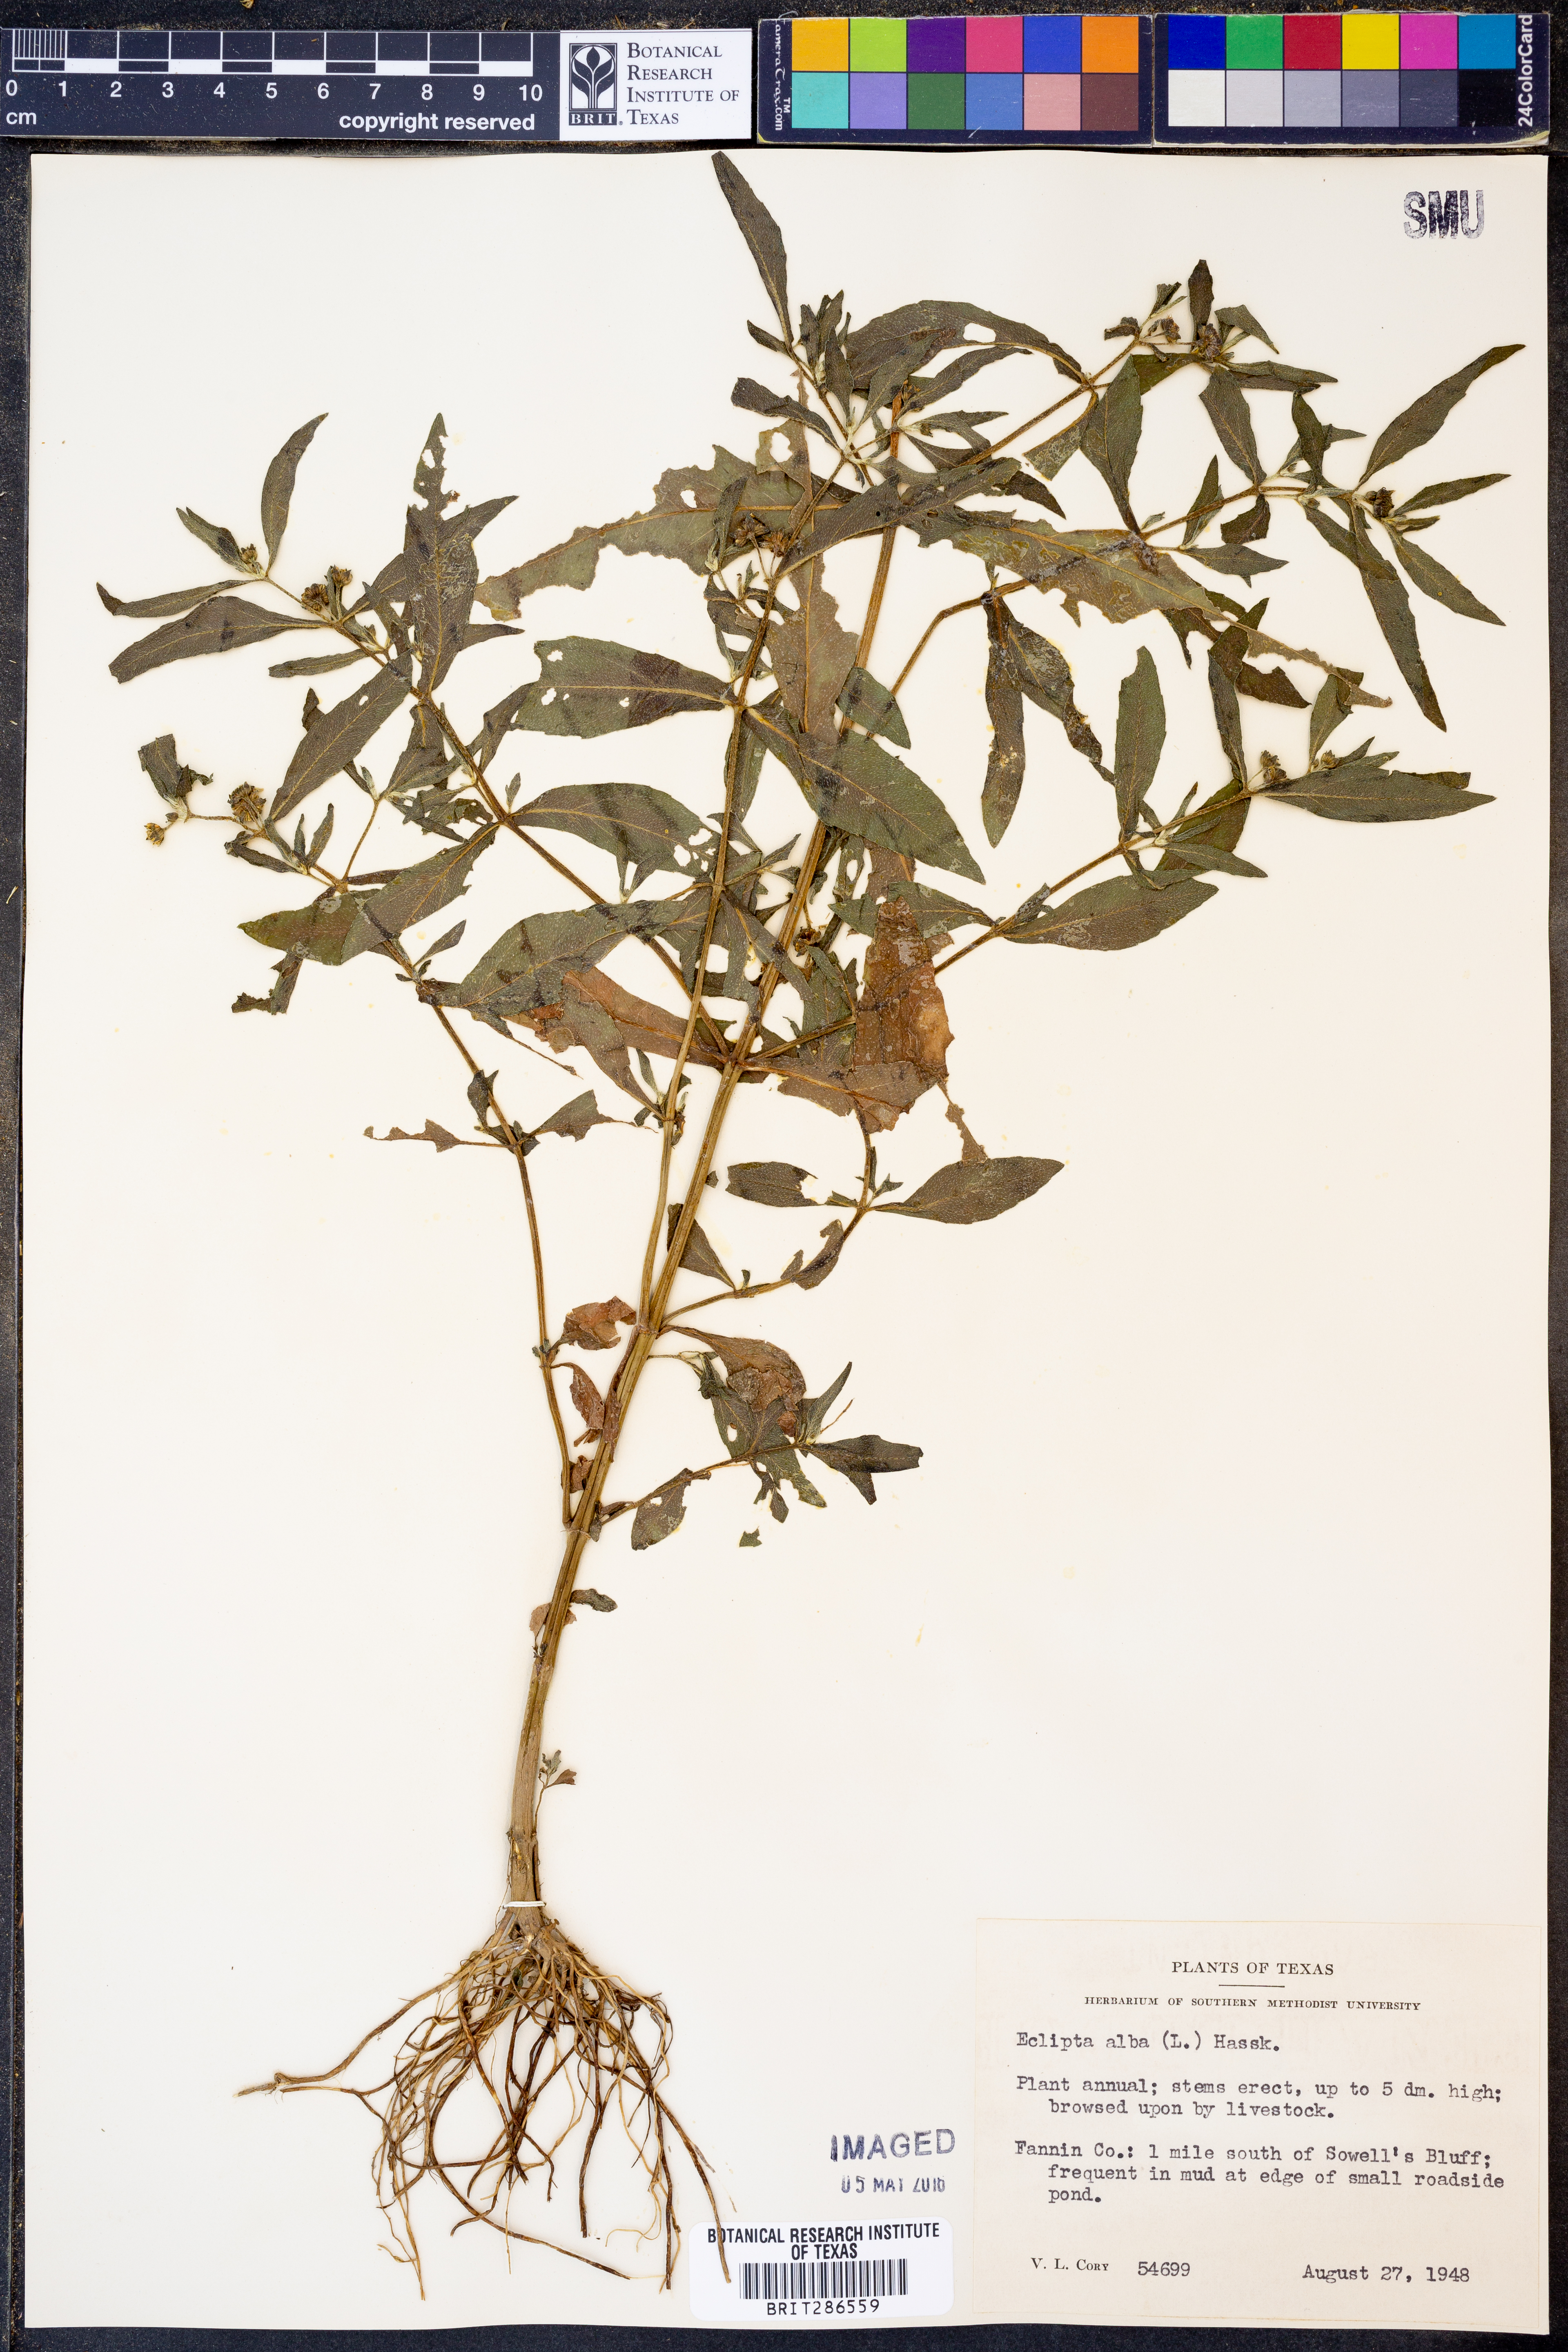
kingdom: Plantae
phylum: Tracheophyta
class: Magnoliopsida
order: Asterales
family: Asteraceae
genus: Eclipta
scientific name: Eclipta alba
